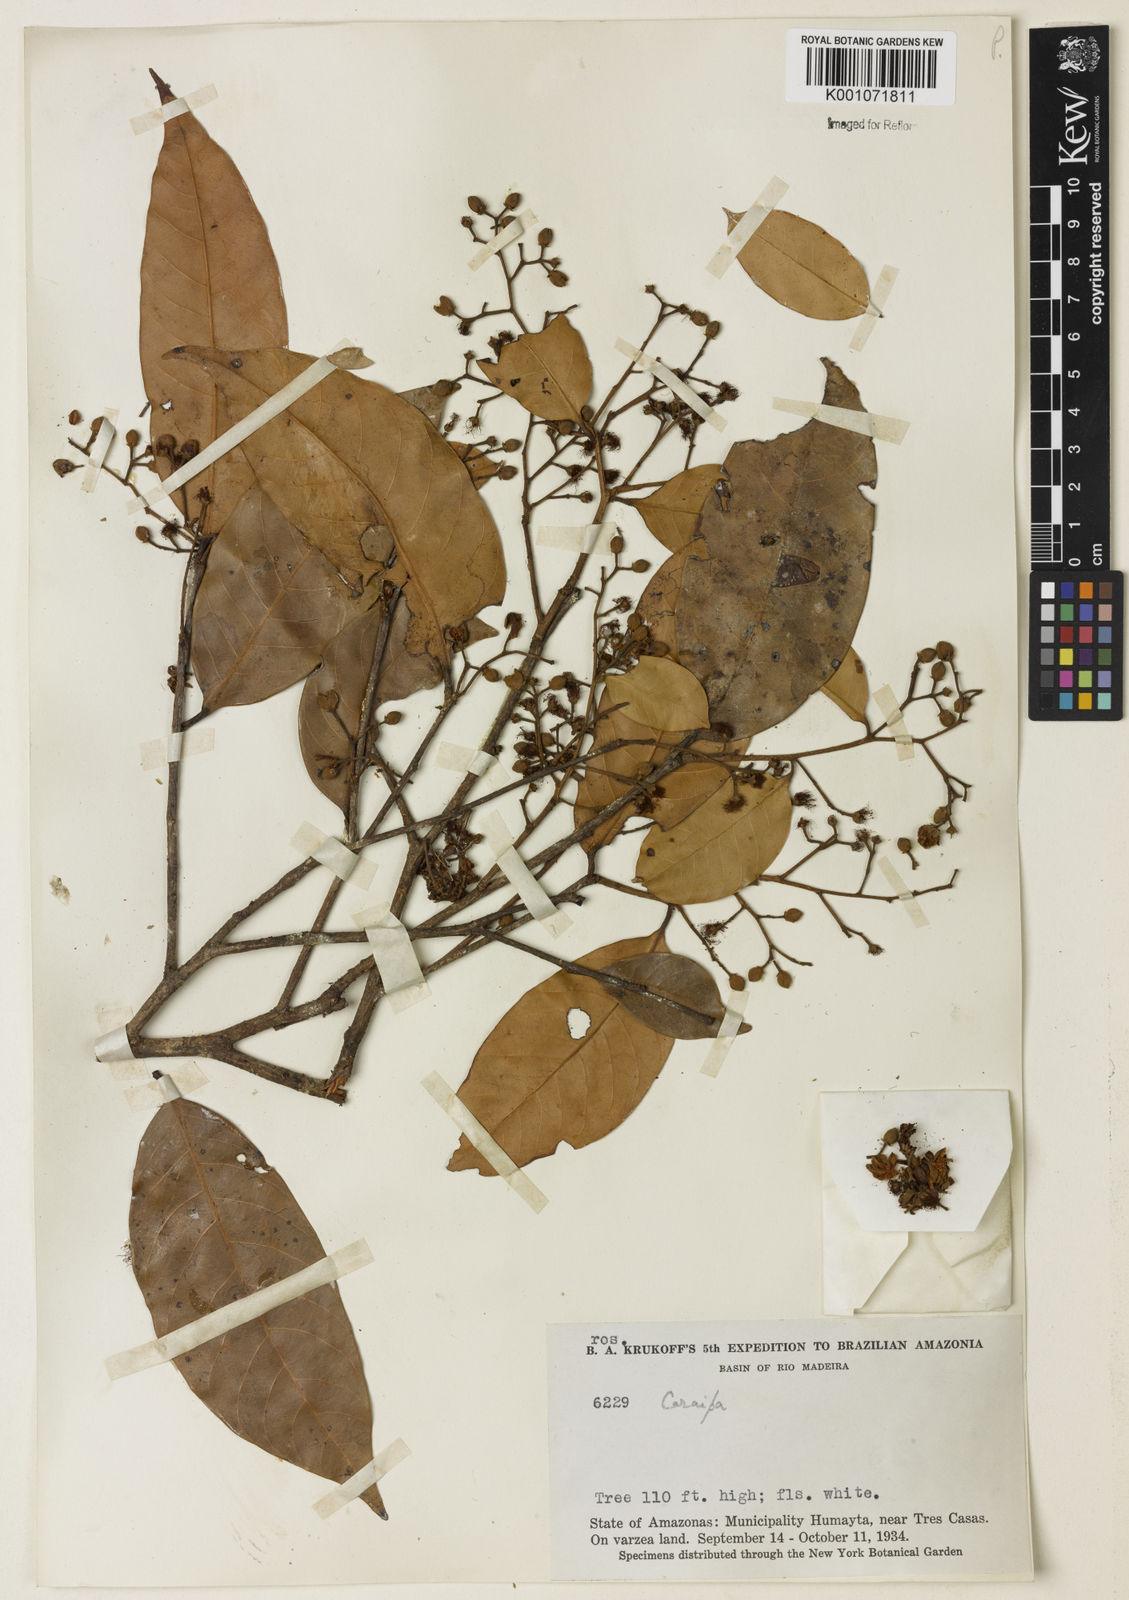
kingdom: Plantae
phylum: Tracheophyta
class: Magnoliopsida
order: Malpighiales
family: Calophyllaceae
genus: Caraipa
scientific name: Caraipa
